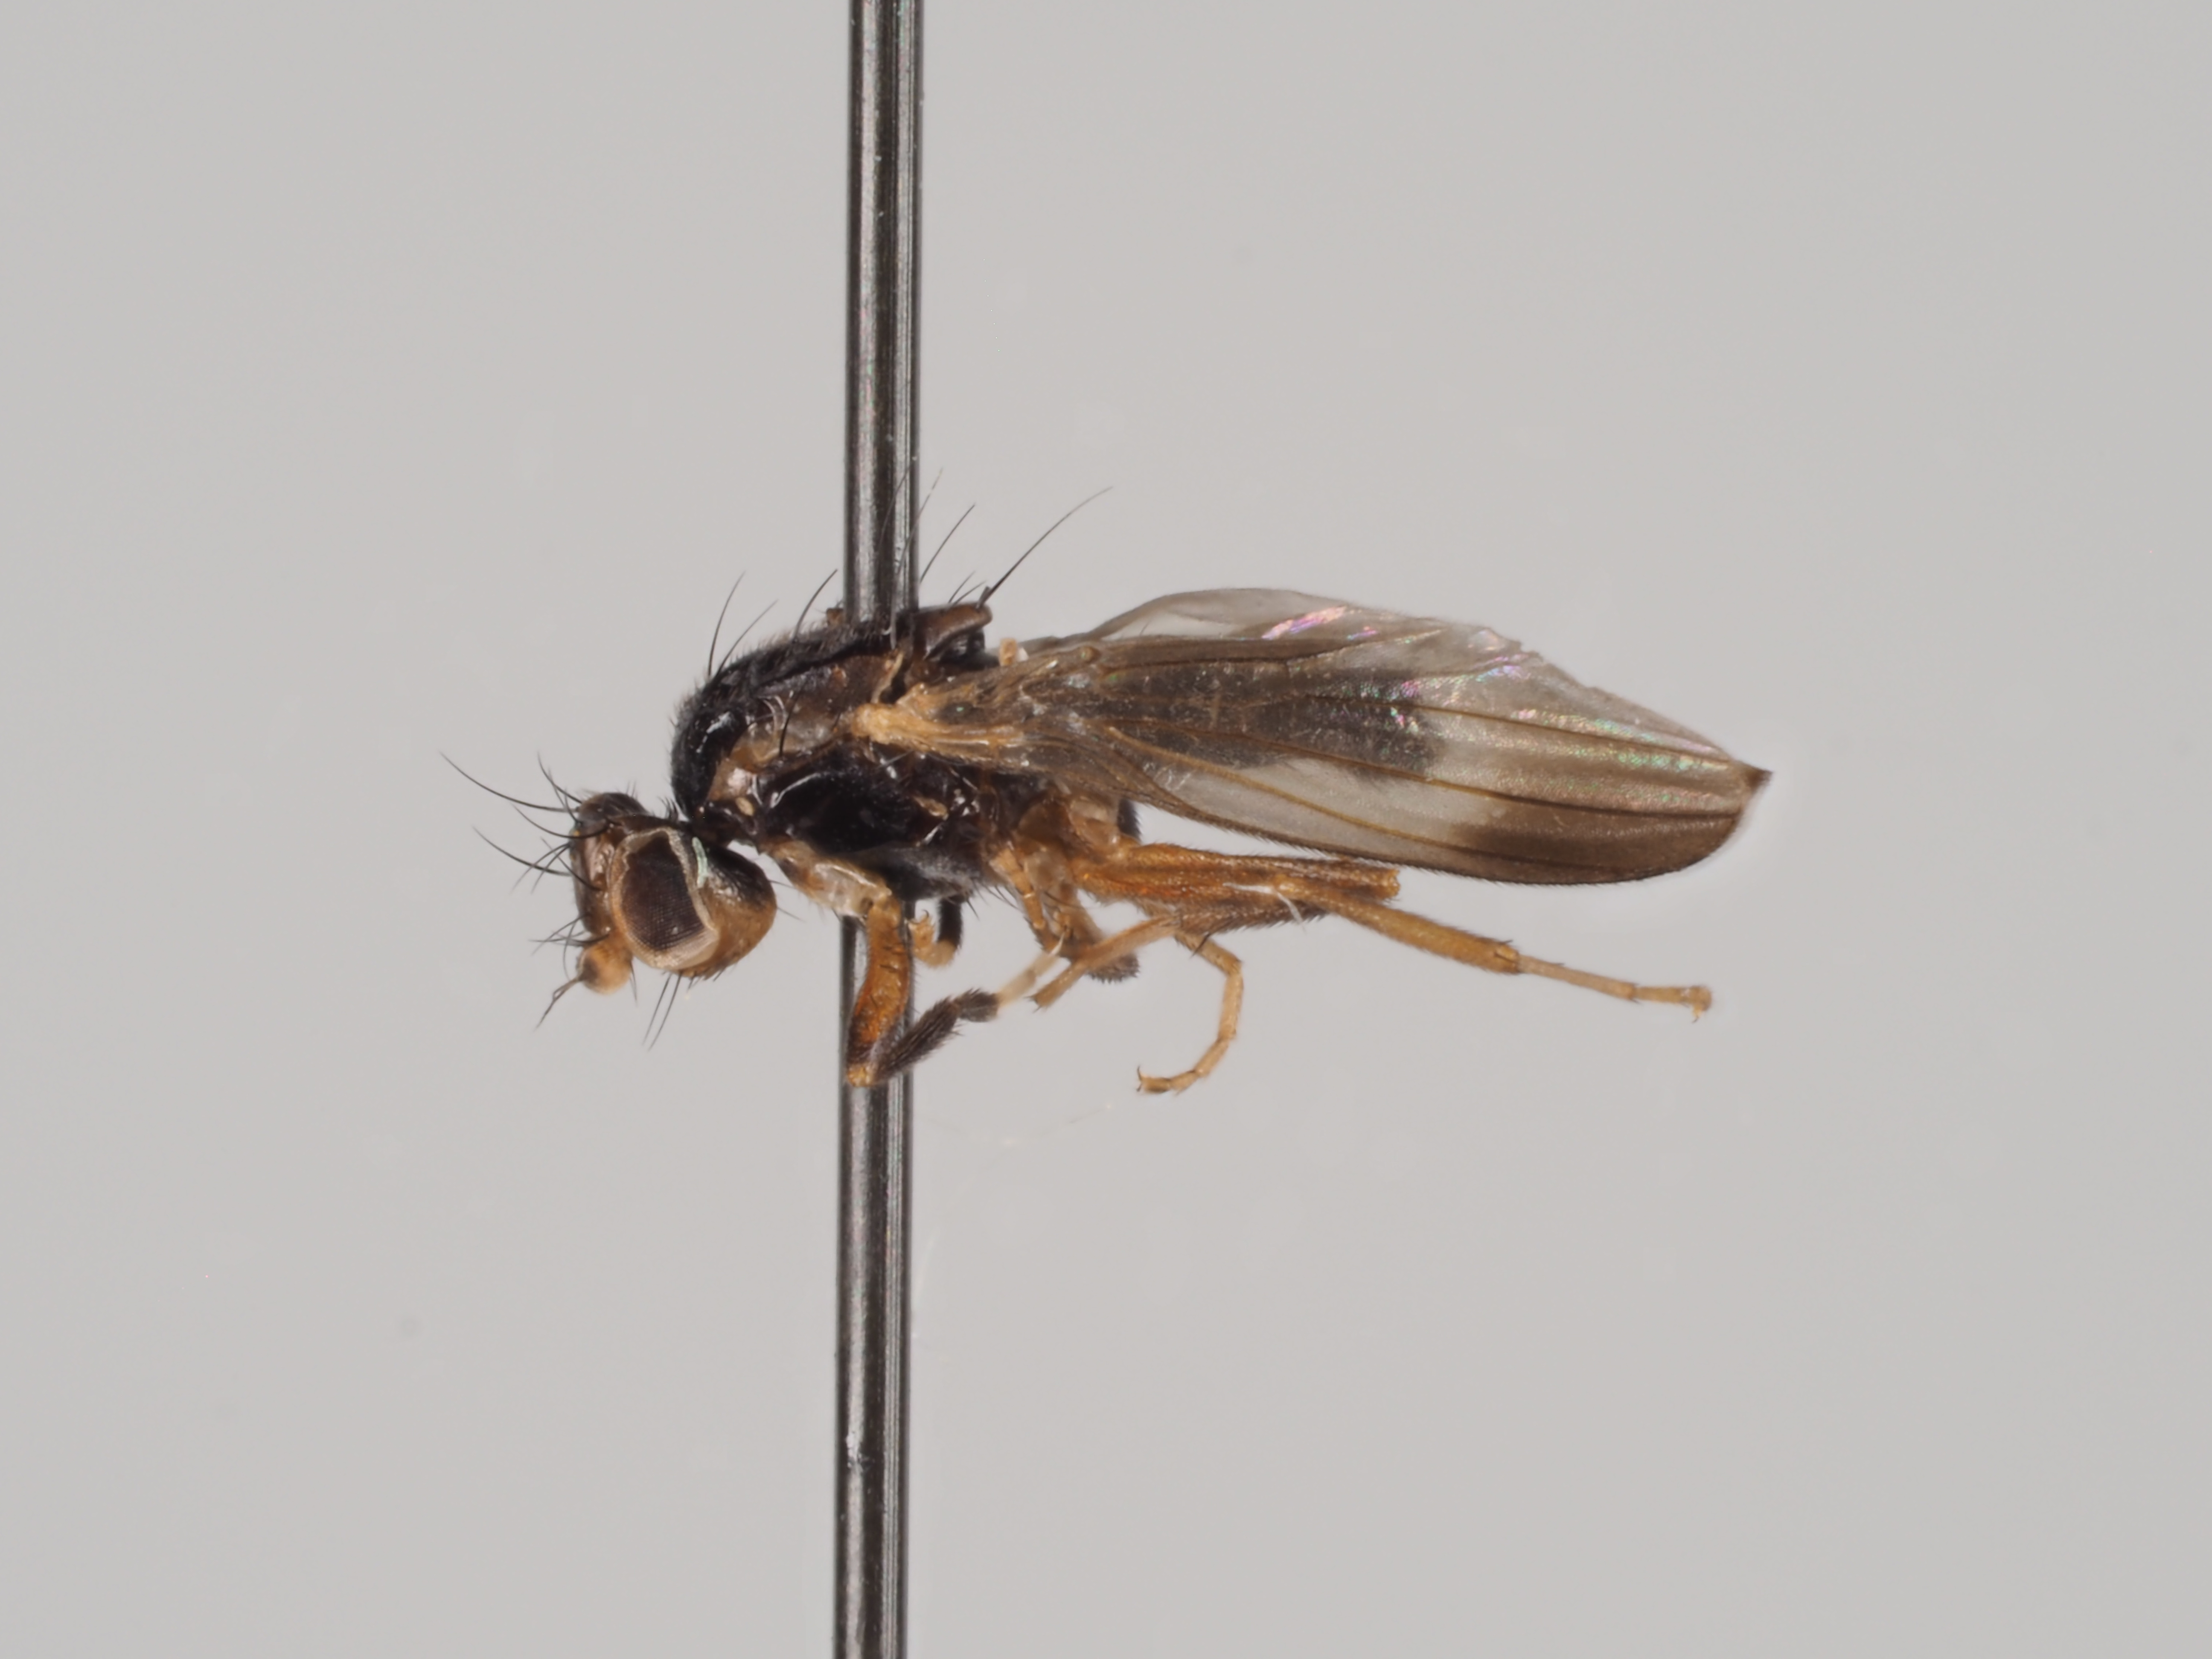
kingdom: Animalia
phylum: Arthropoda
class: Insecta
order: Diptera
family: Clusiidae
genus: Clusiodes
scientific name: Clusiodes caledonicus
